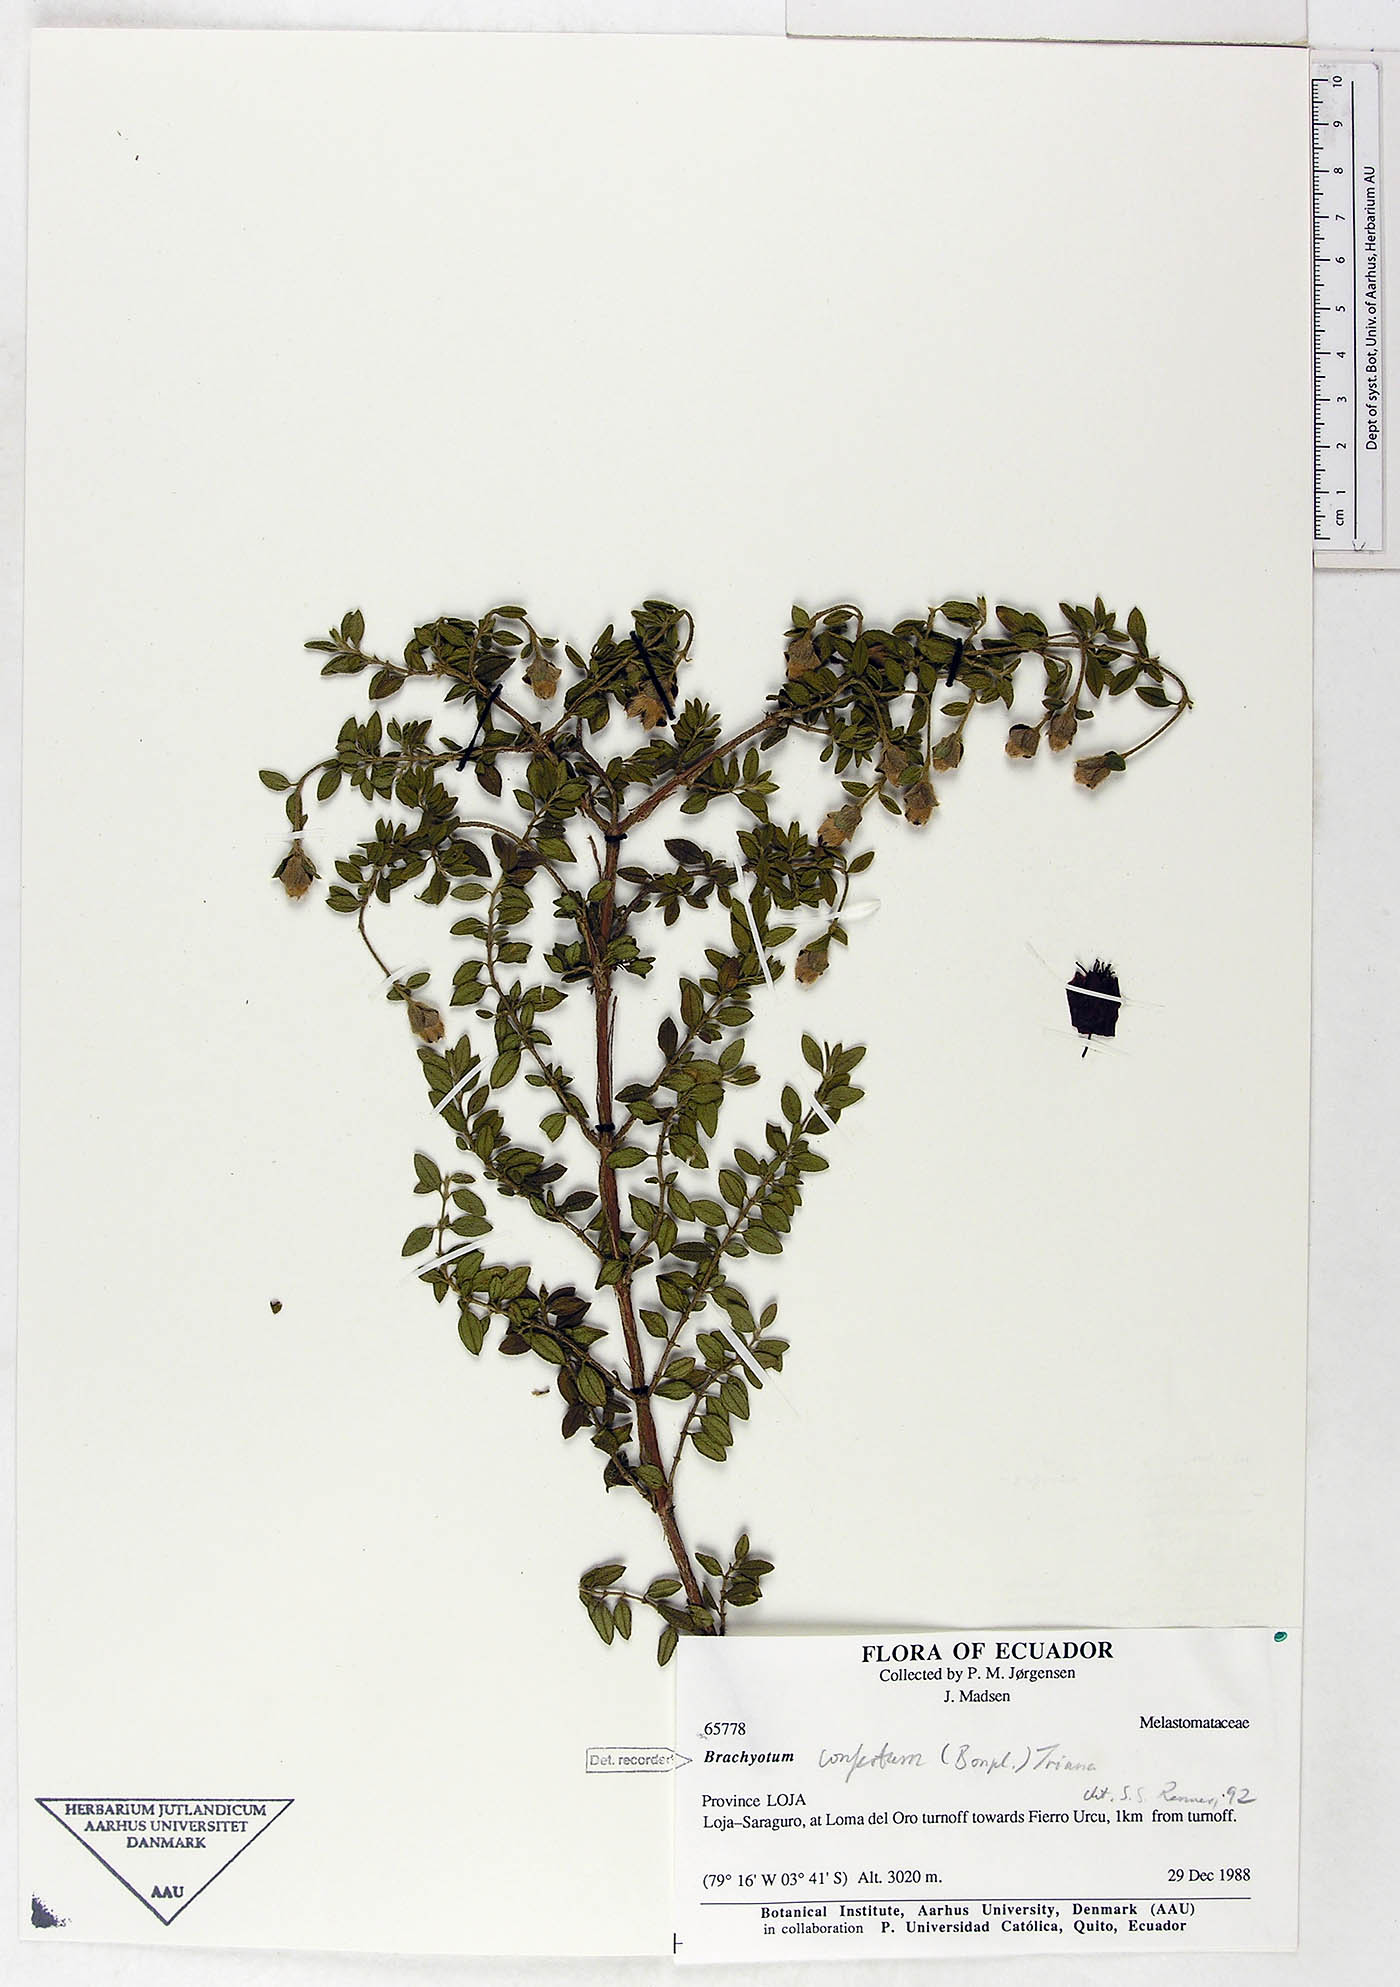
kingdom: Plantae
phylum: Tracheophyta
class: Magnoliopsida
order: Myrtales
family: Melastomataceae
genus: Brachyotum
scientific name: Brachyotum confertum
